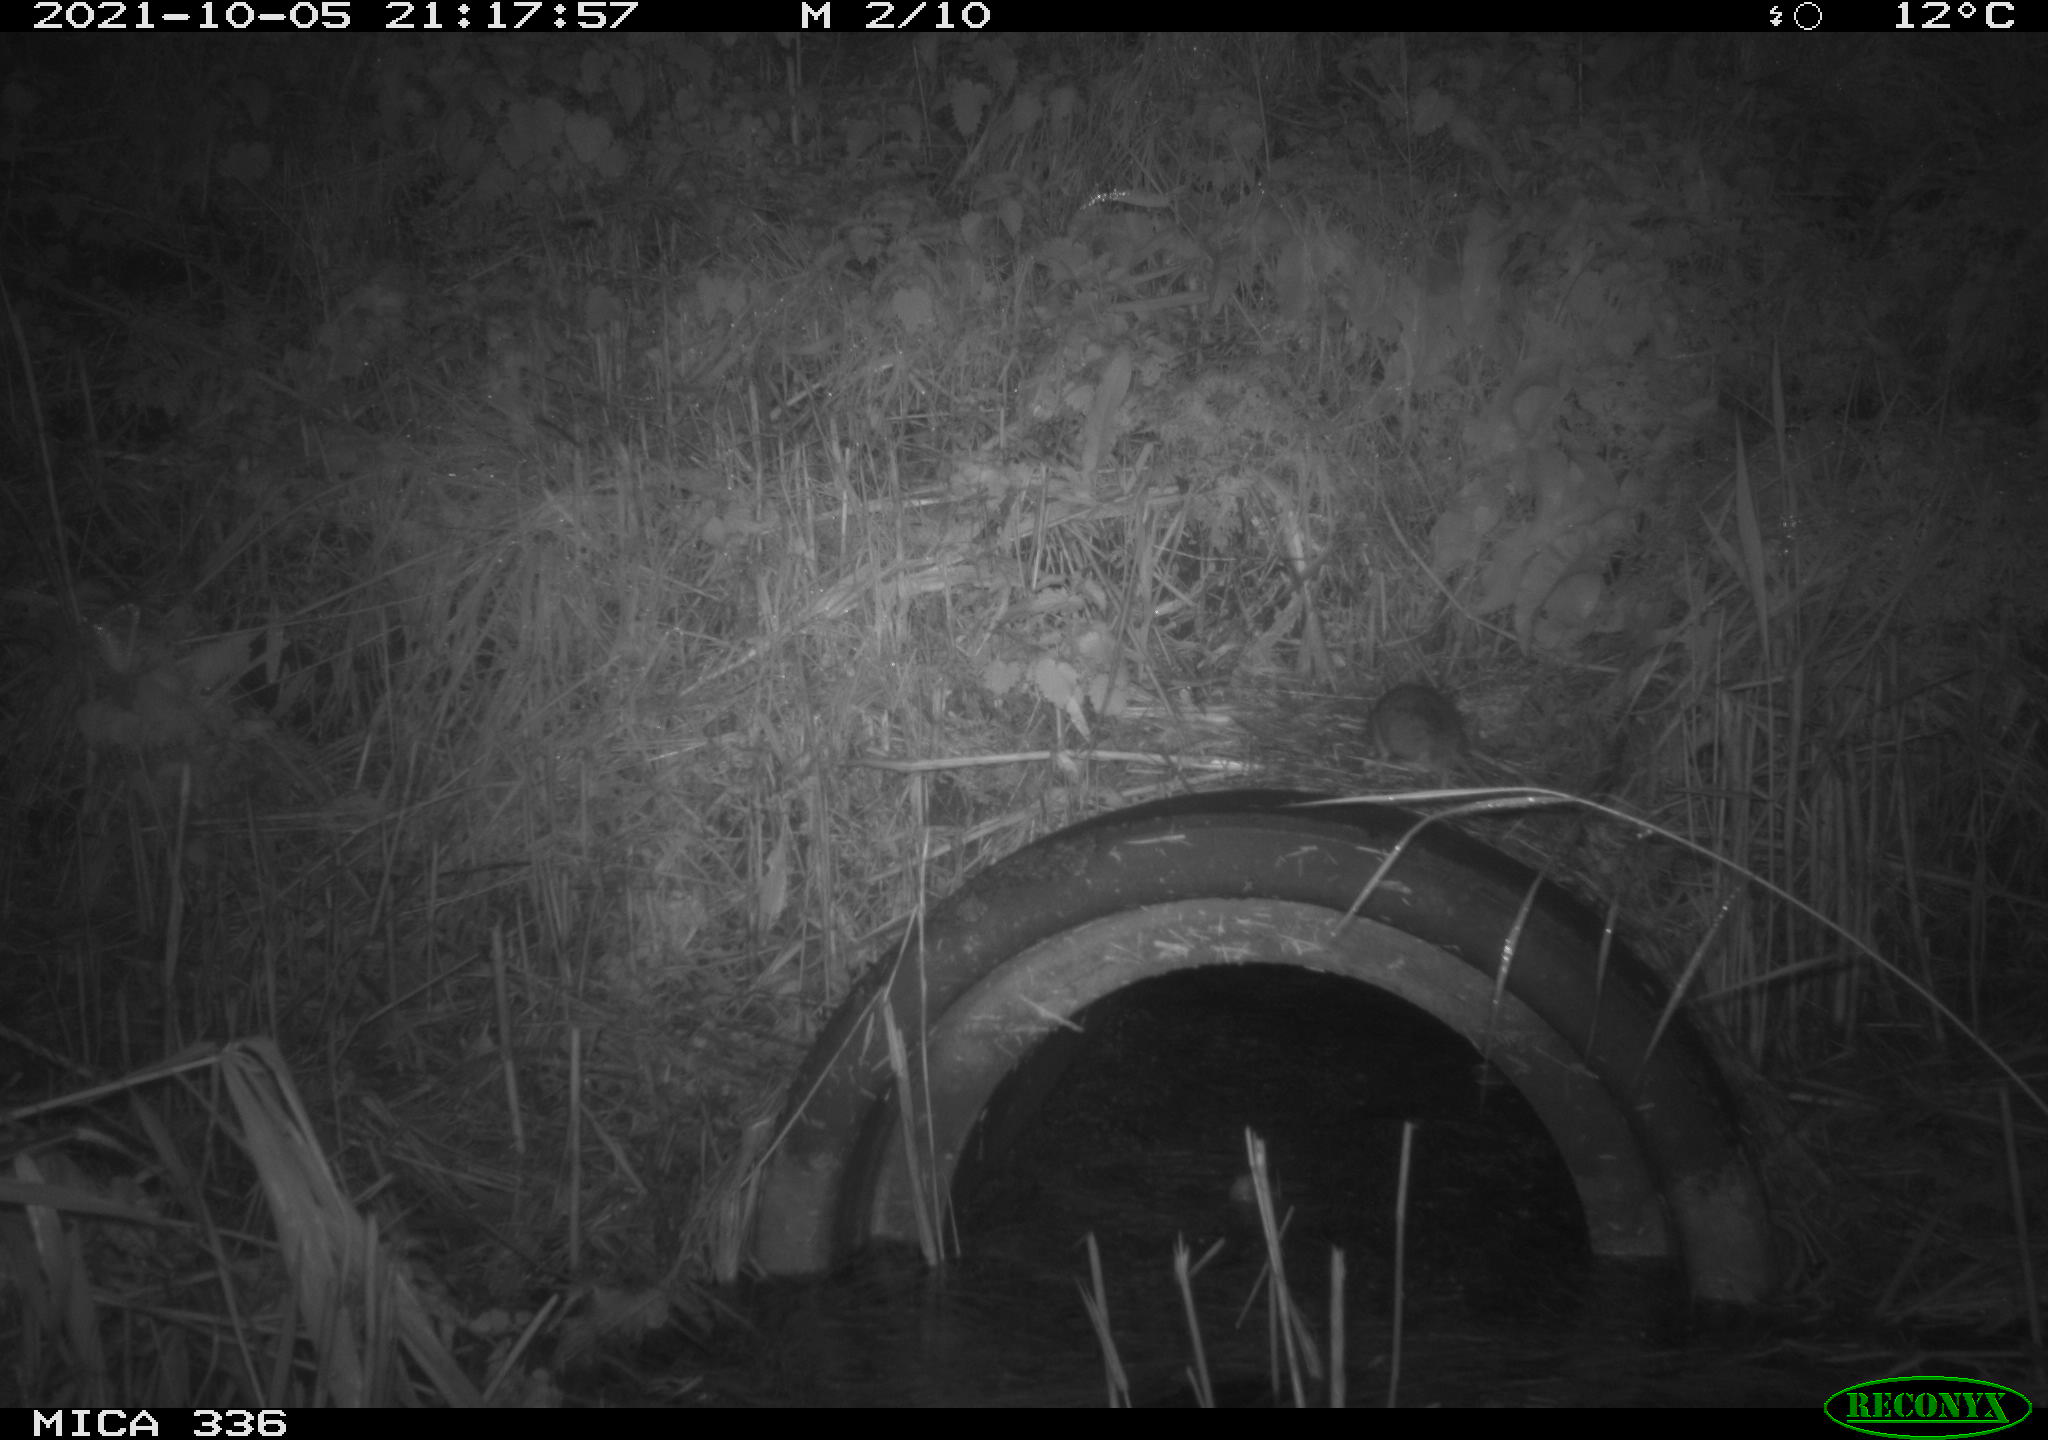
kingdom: Animalia
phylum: Chordata
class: Mammalia
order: Rodentia
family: Muridae
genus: Rattus
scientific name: Rattus norvegicus
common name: Brown rat
